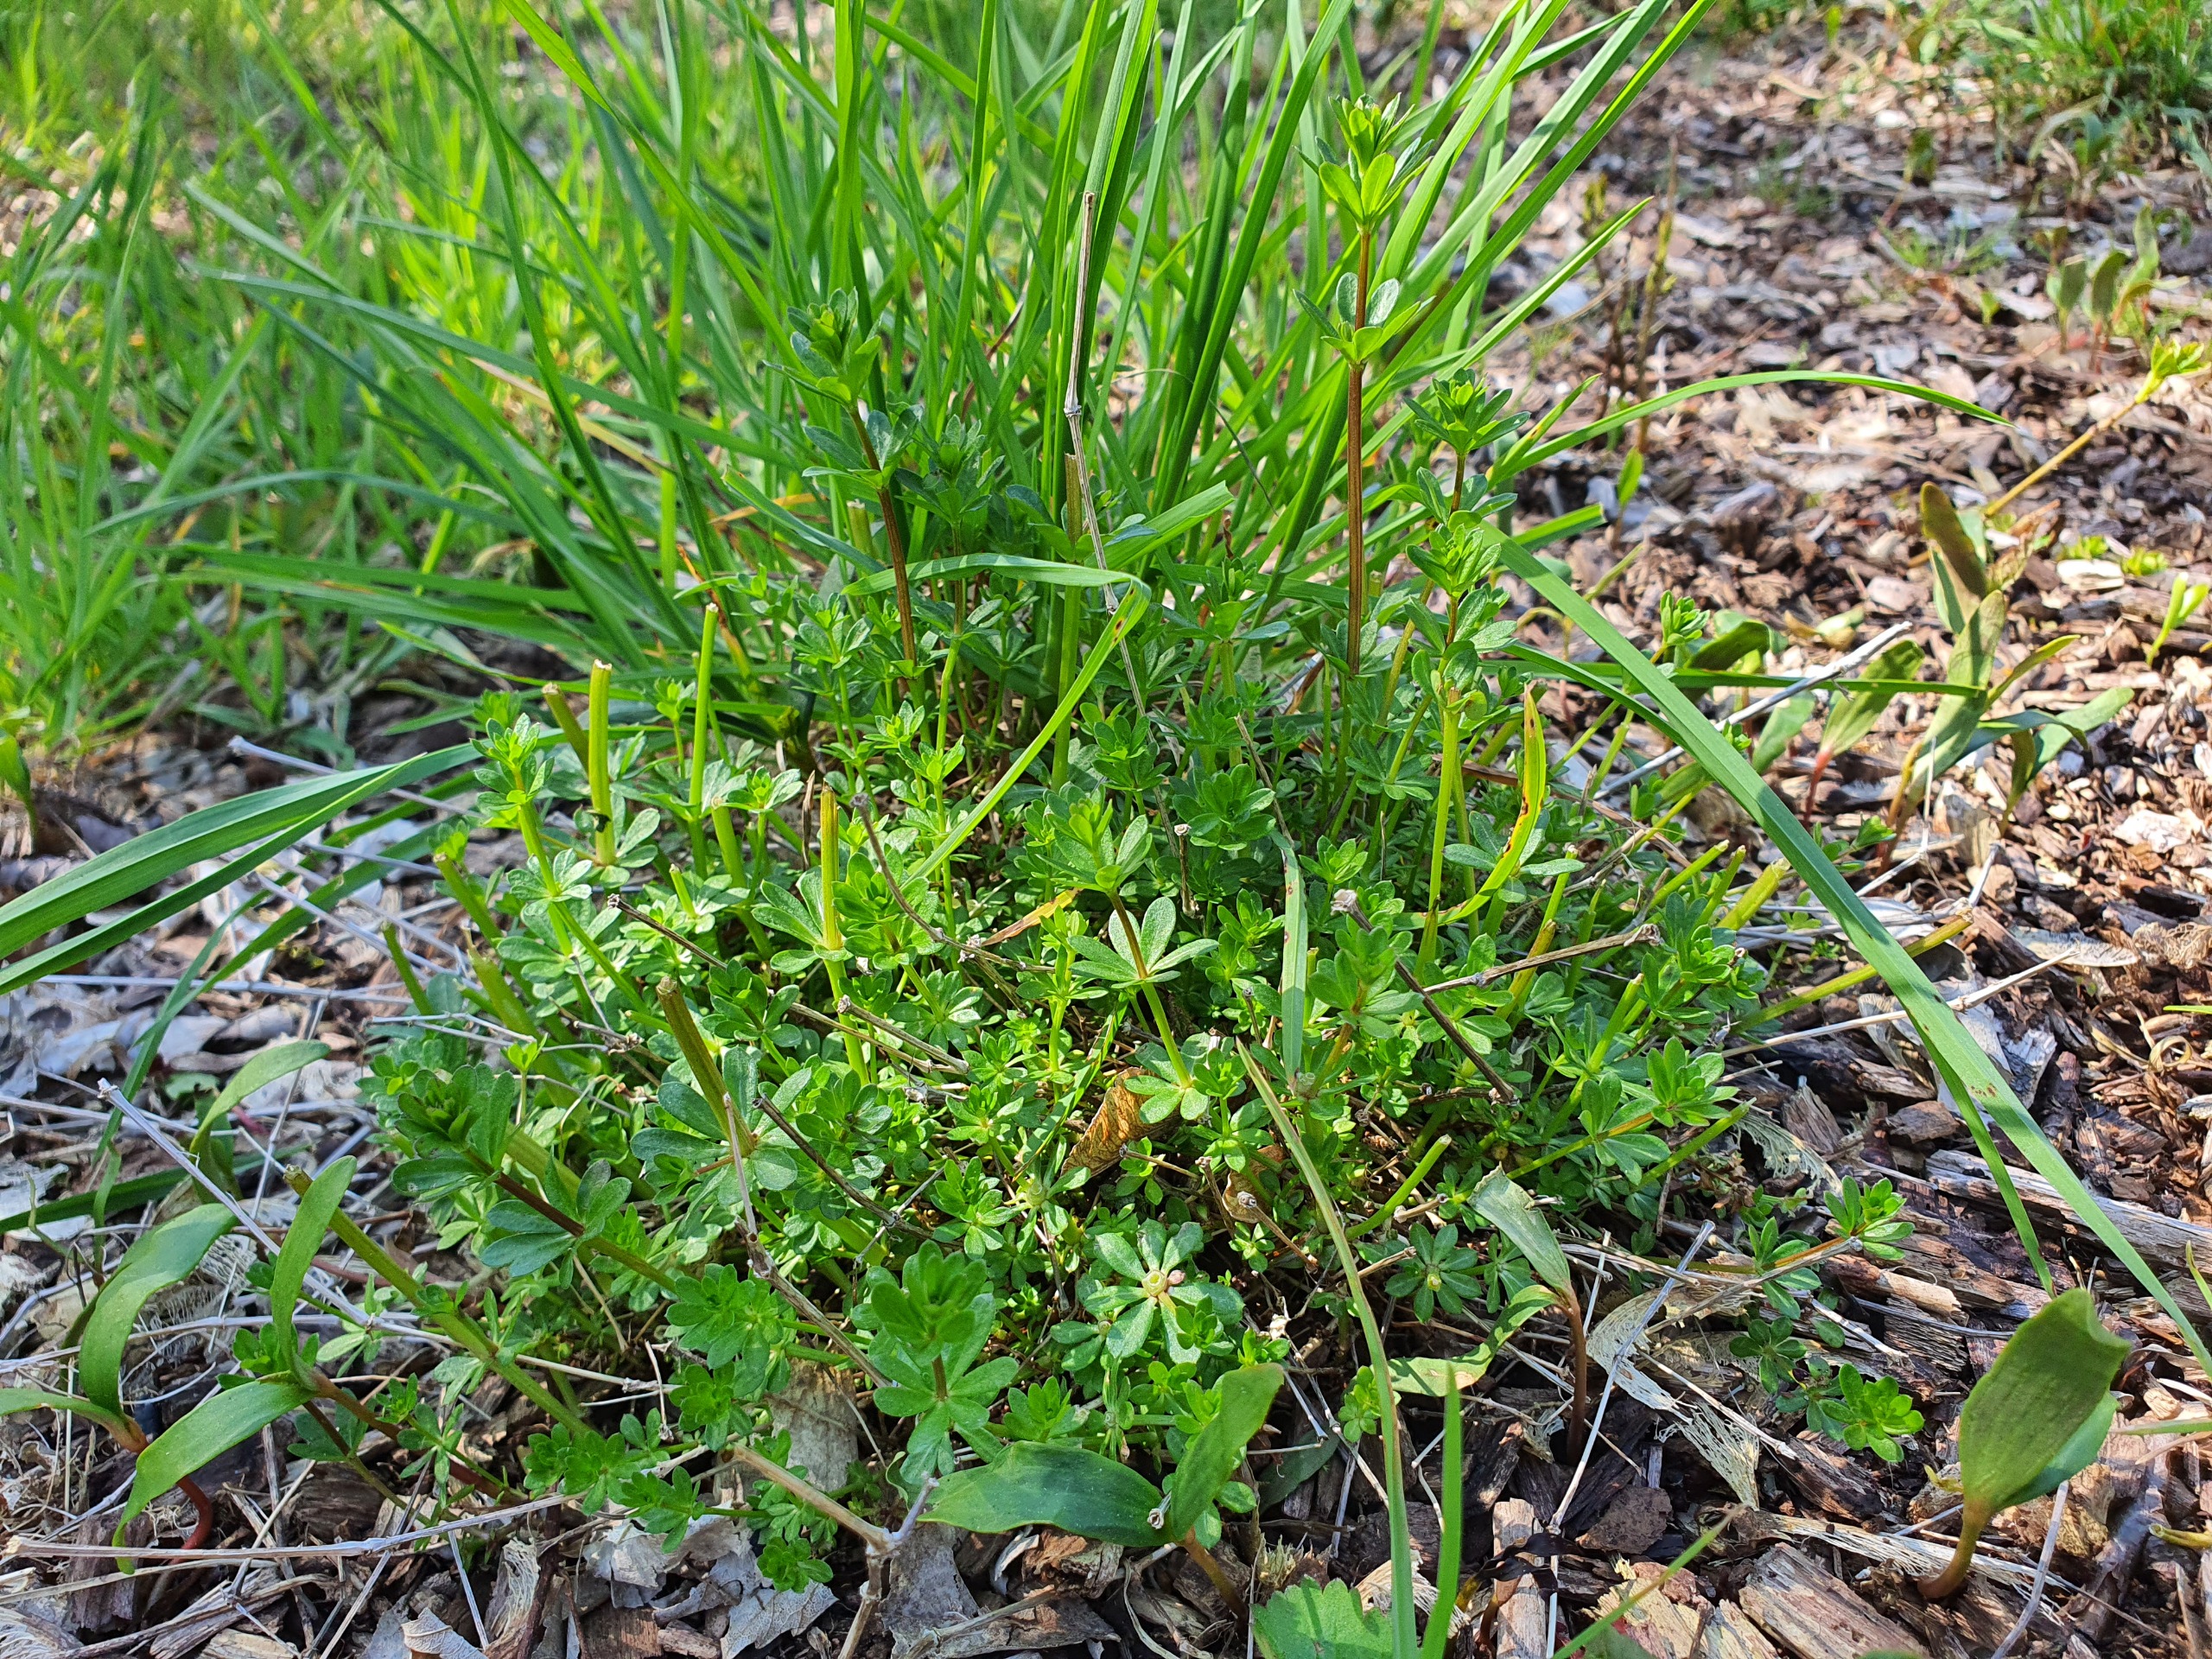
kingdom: Plantae
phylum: Tracheophyta
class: Magnoliopsida
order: Gentianales
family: Rubiaceae
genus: Galium
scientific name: Galium mollugo
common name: Hvid snerre
